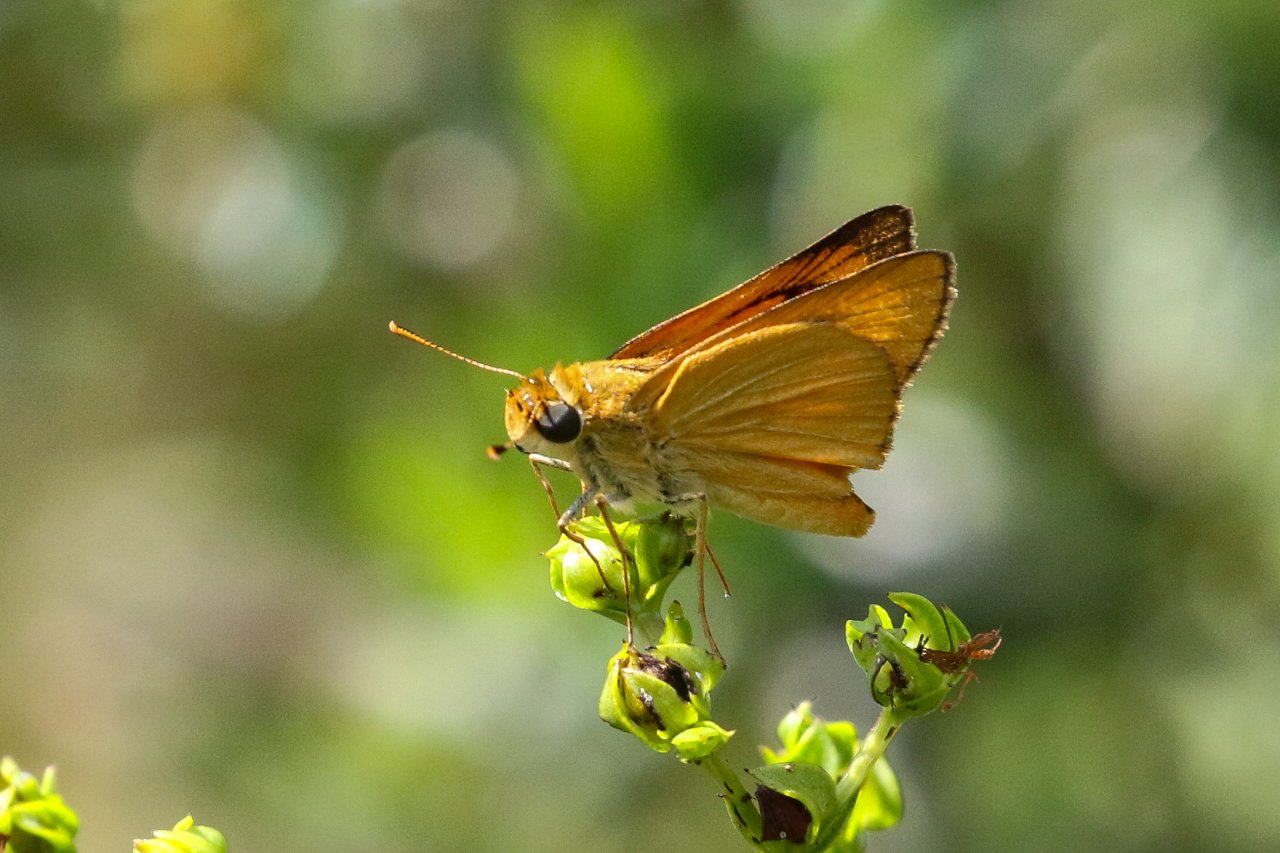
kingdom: Animalia
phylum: Arthropoda
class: Insecta
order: Lepidoptera
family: Hesperiidae
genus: Atrytone
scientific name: Atrytone delaware
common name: Delaware Skipper
